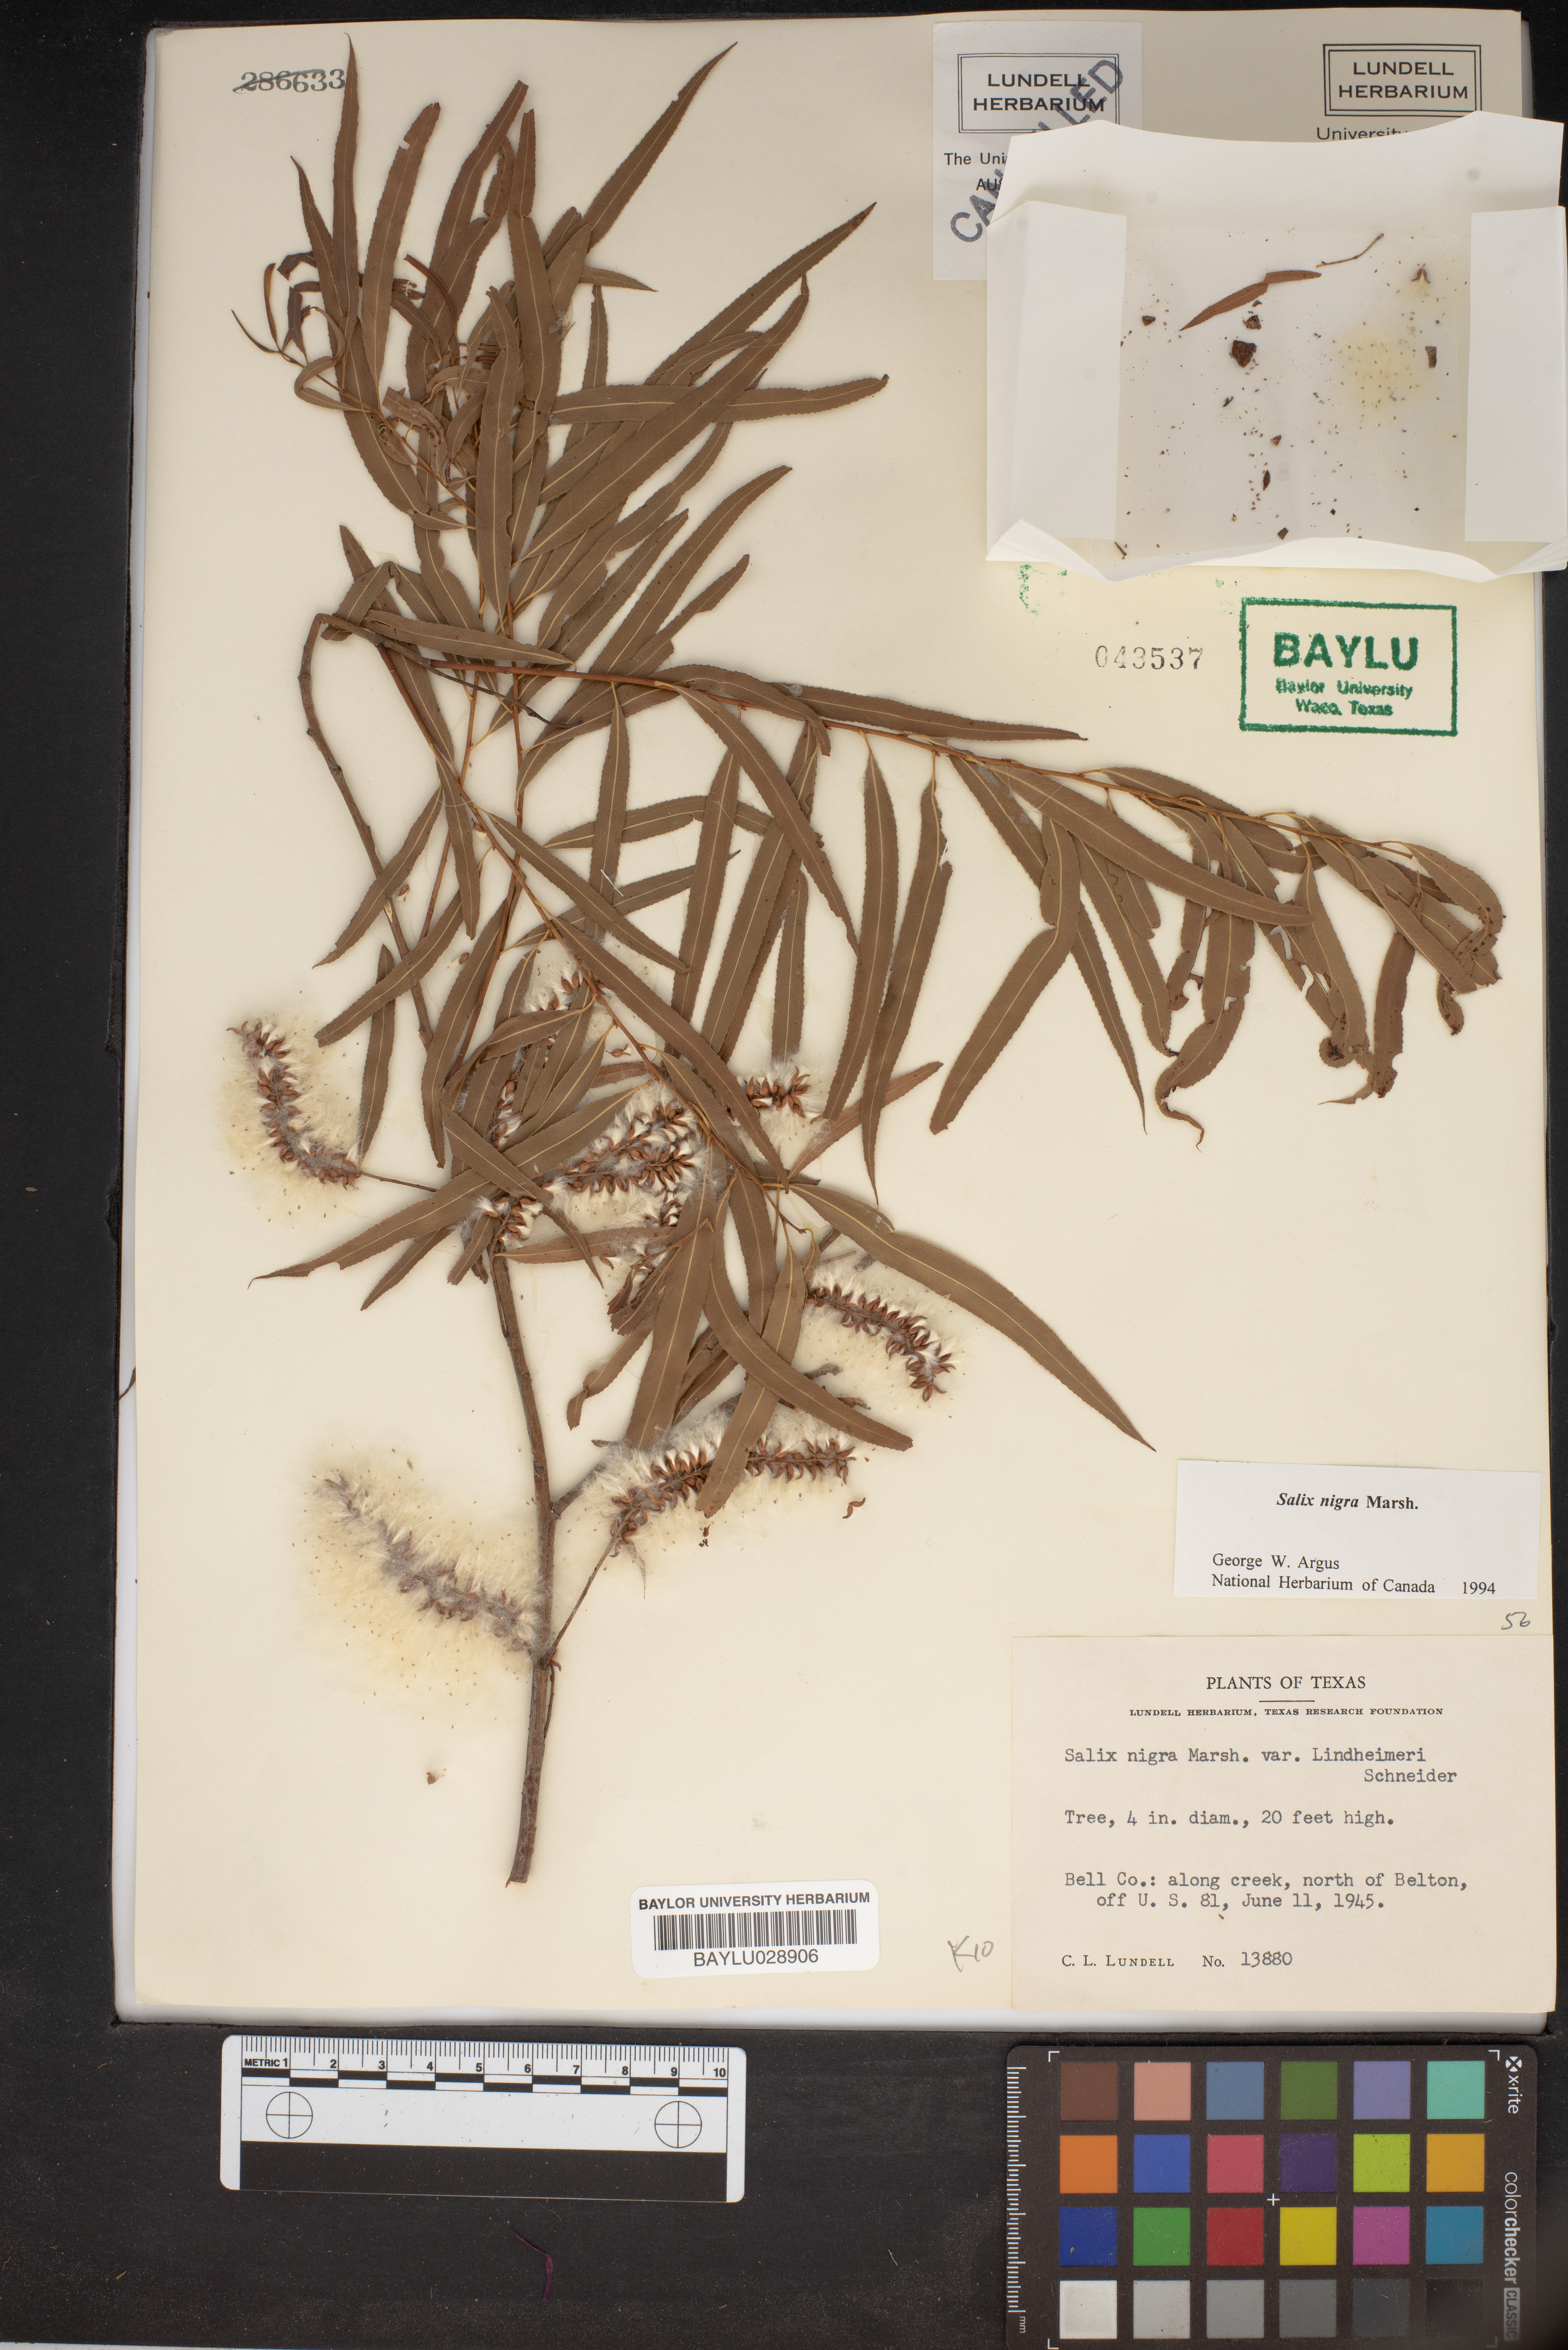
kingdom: Plantae
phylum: Tracheophyta
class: Magnoliopsida
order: Malpighiales
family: Salicaceae
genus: Salix
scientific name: Salix nigra
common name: Black willow
